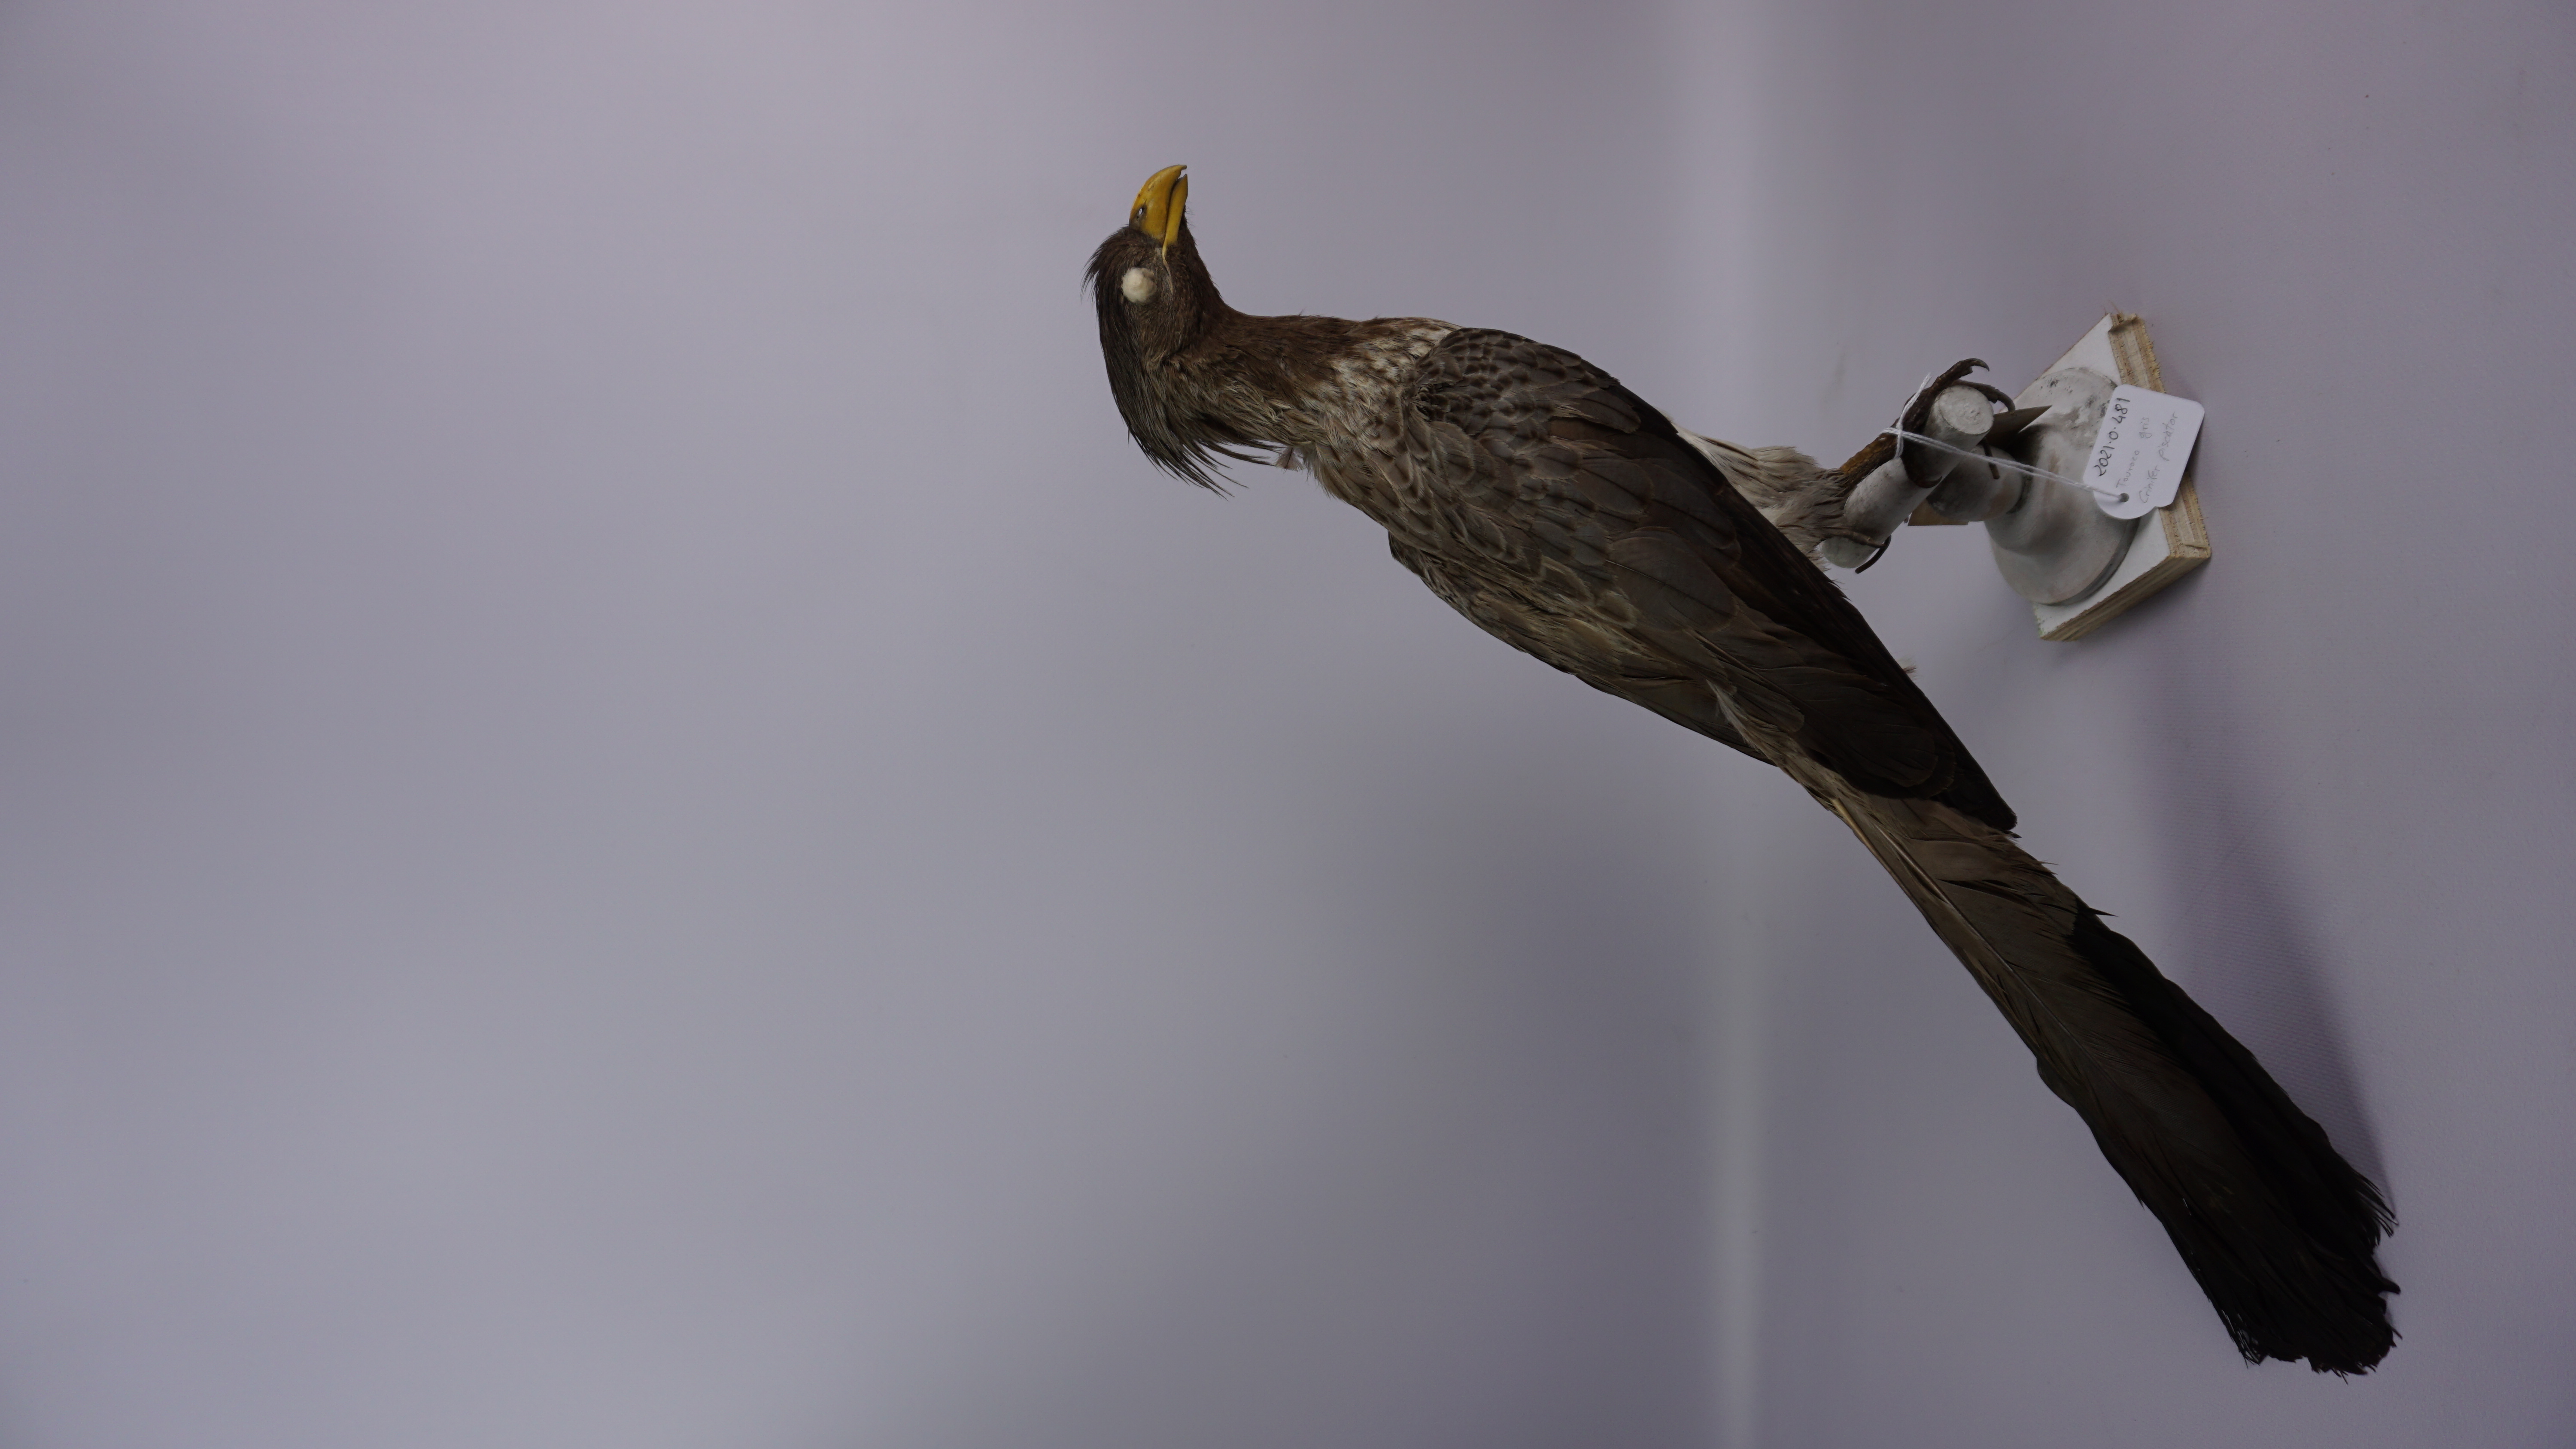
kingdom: Animalia
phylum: Chordata
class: Aves
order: Musophagiformes
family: Musophagidae
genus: Crinifer
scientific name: Crinifer piscator
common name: Western plantain-eater
